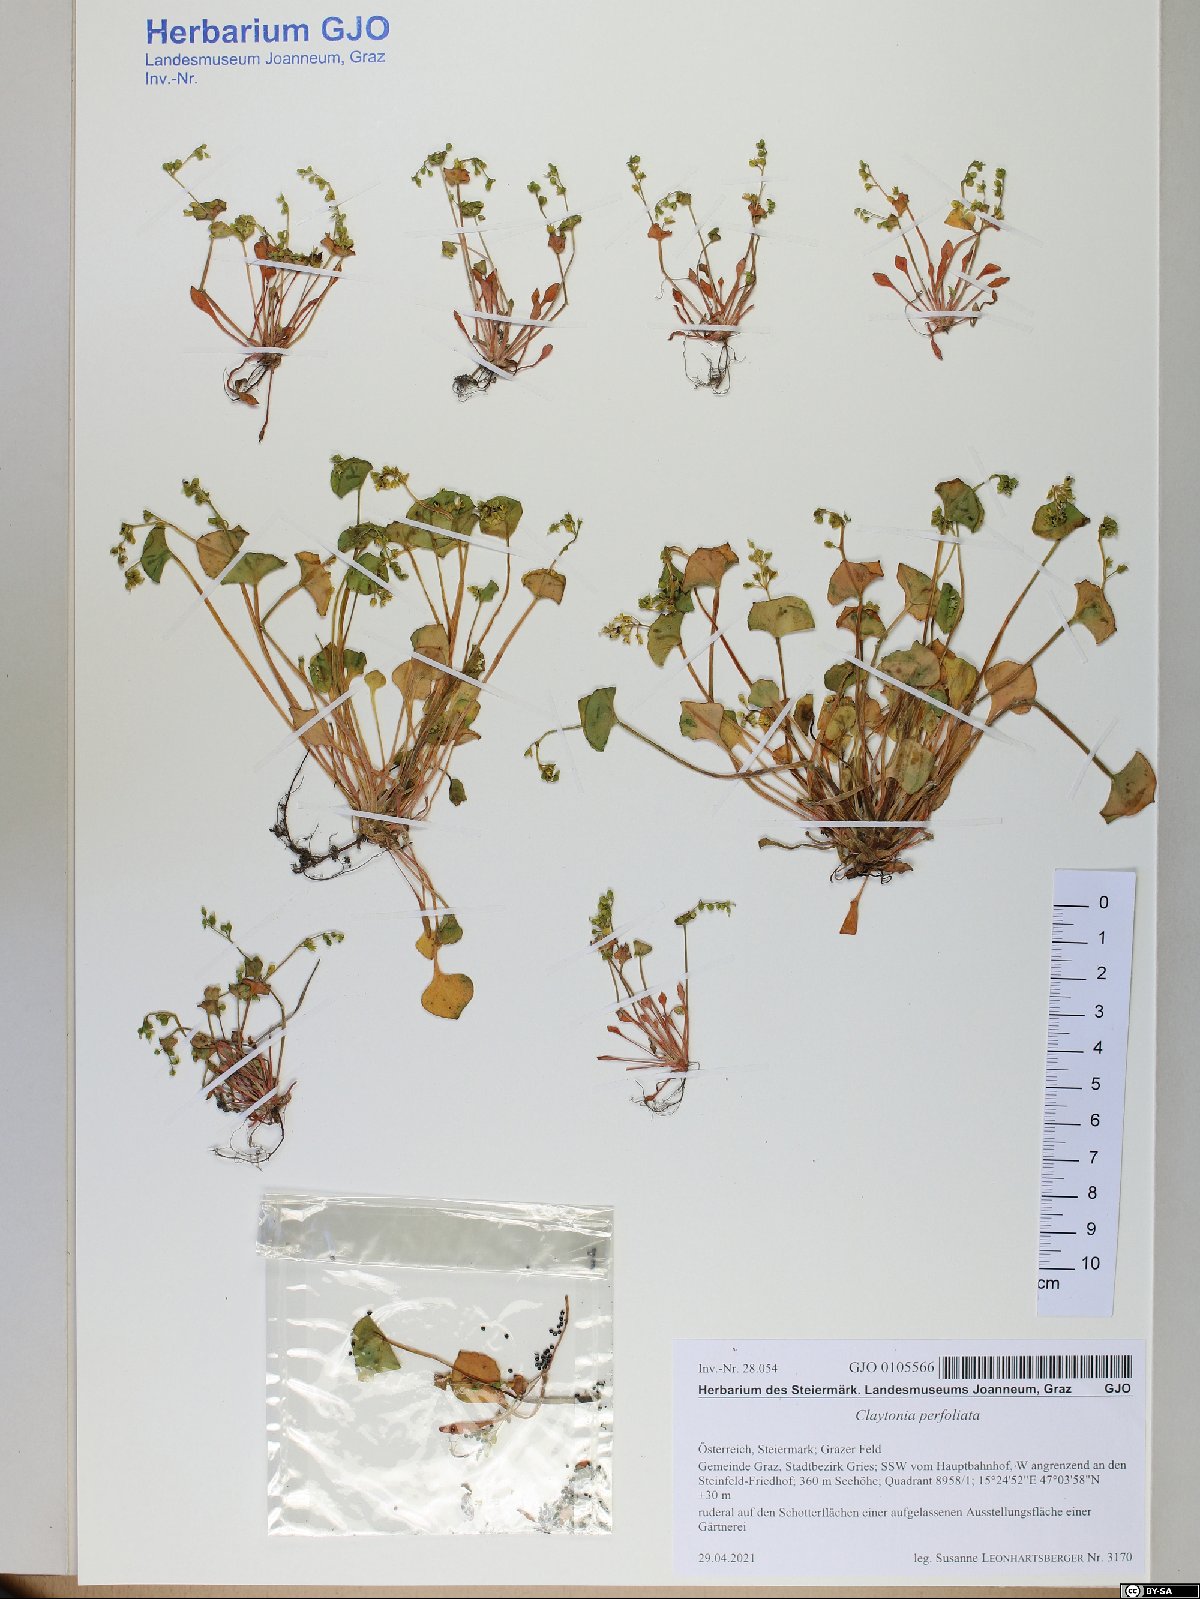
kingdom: Plantae
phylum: Tracheophyta
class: Magnoliopsida
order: Caryophyllales
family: Montiaceae
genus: Claytonia
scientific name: Claytonia perfoliata
